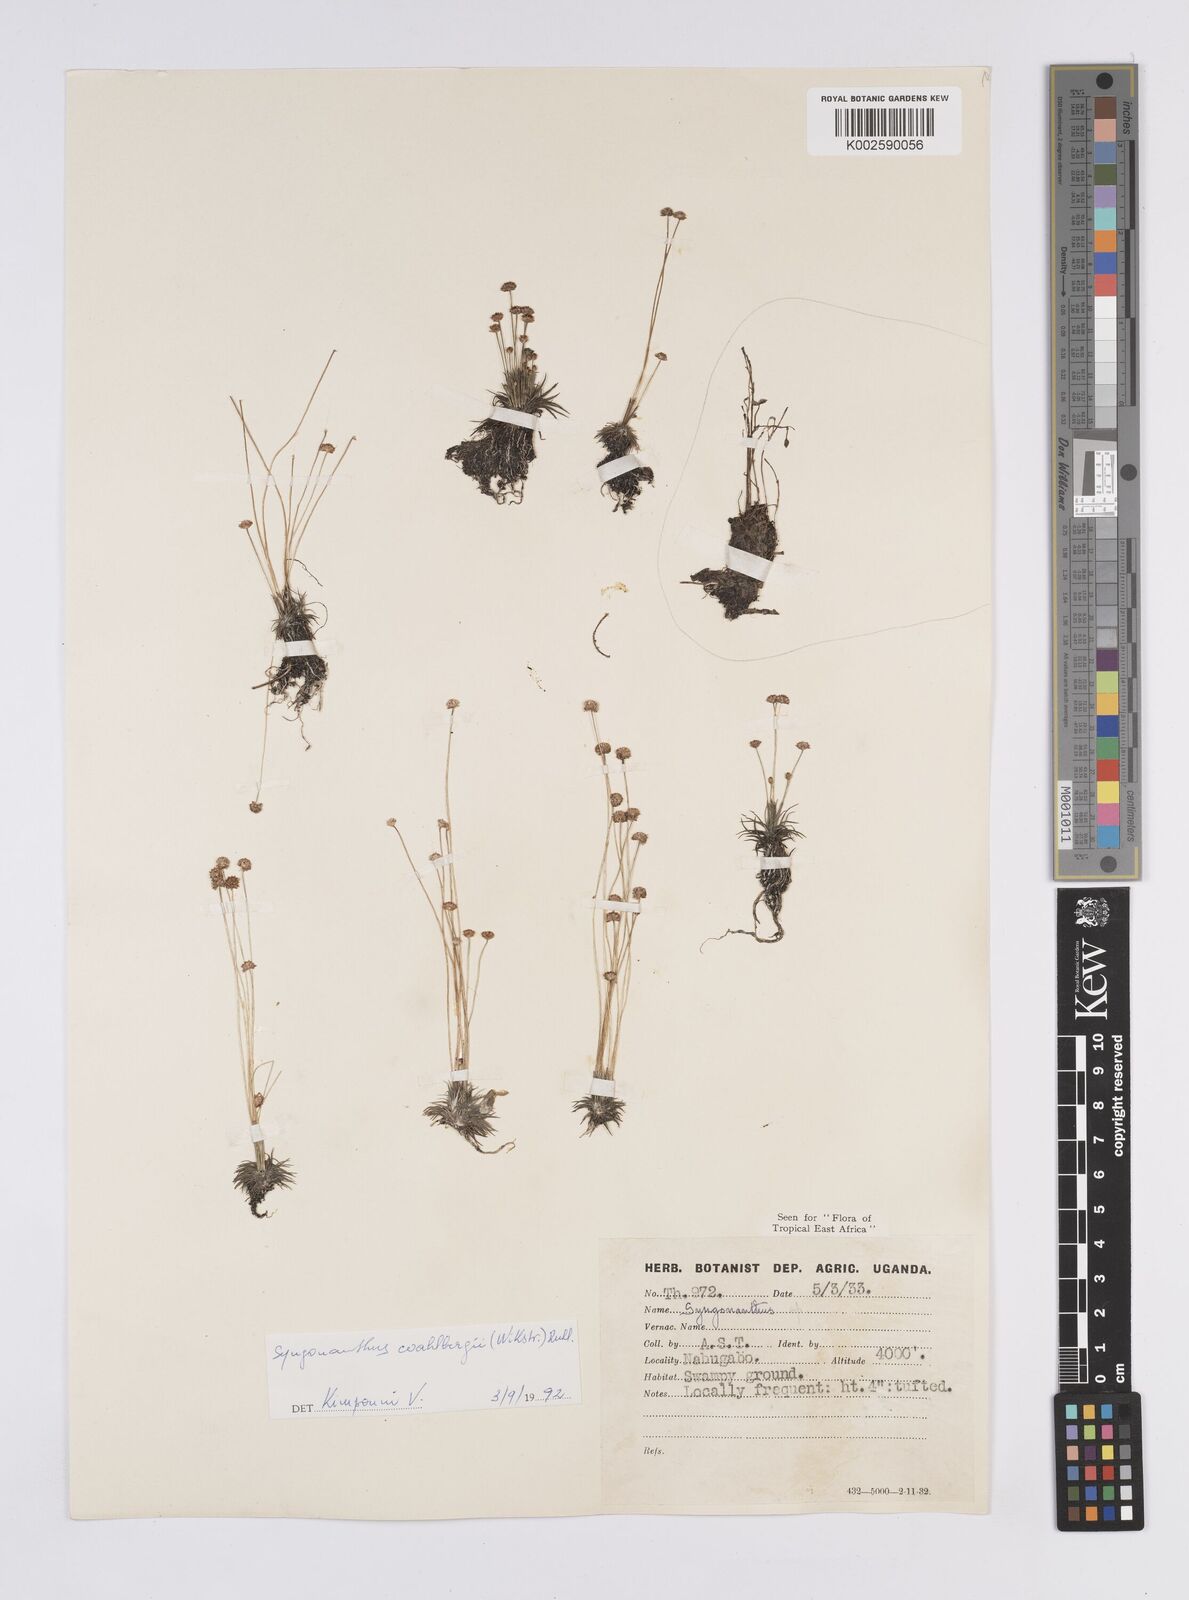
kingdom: Plantae
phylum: Tracheophyta
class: Liliopsida
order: Poales
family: Eriocaulaceae
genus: Syngonanthus
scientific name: Syngonanthus wahlbergii
